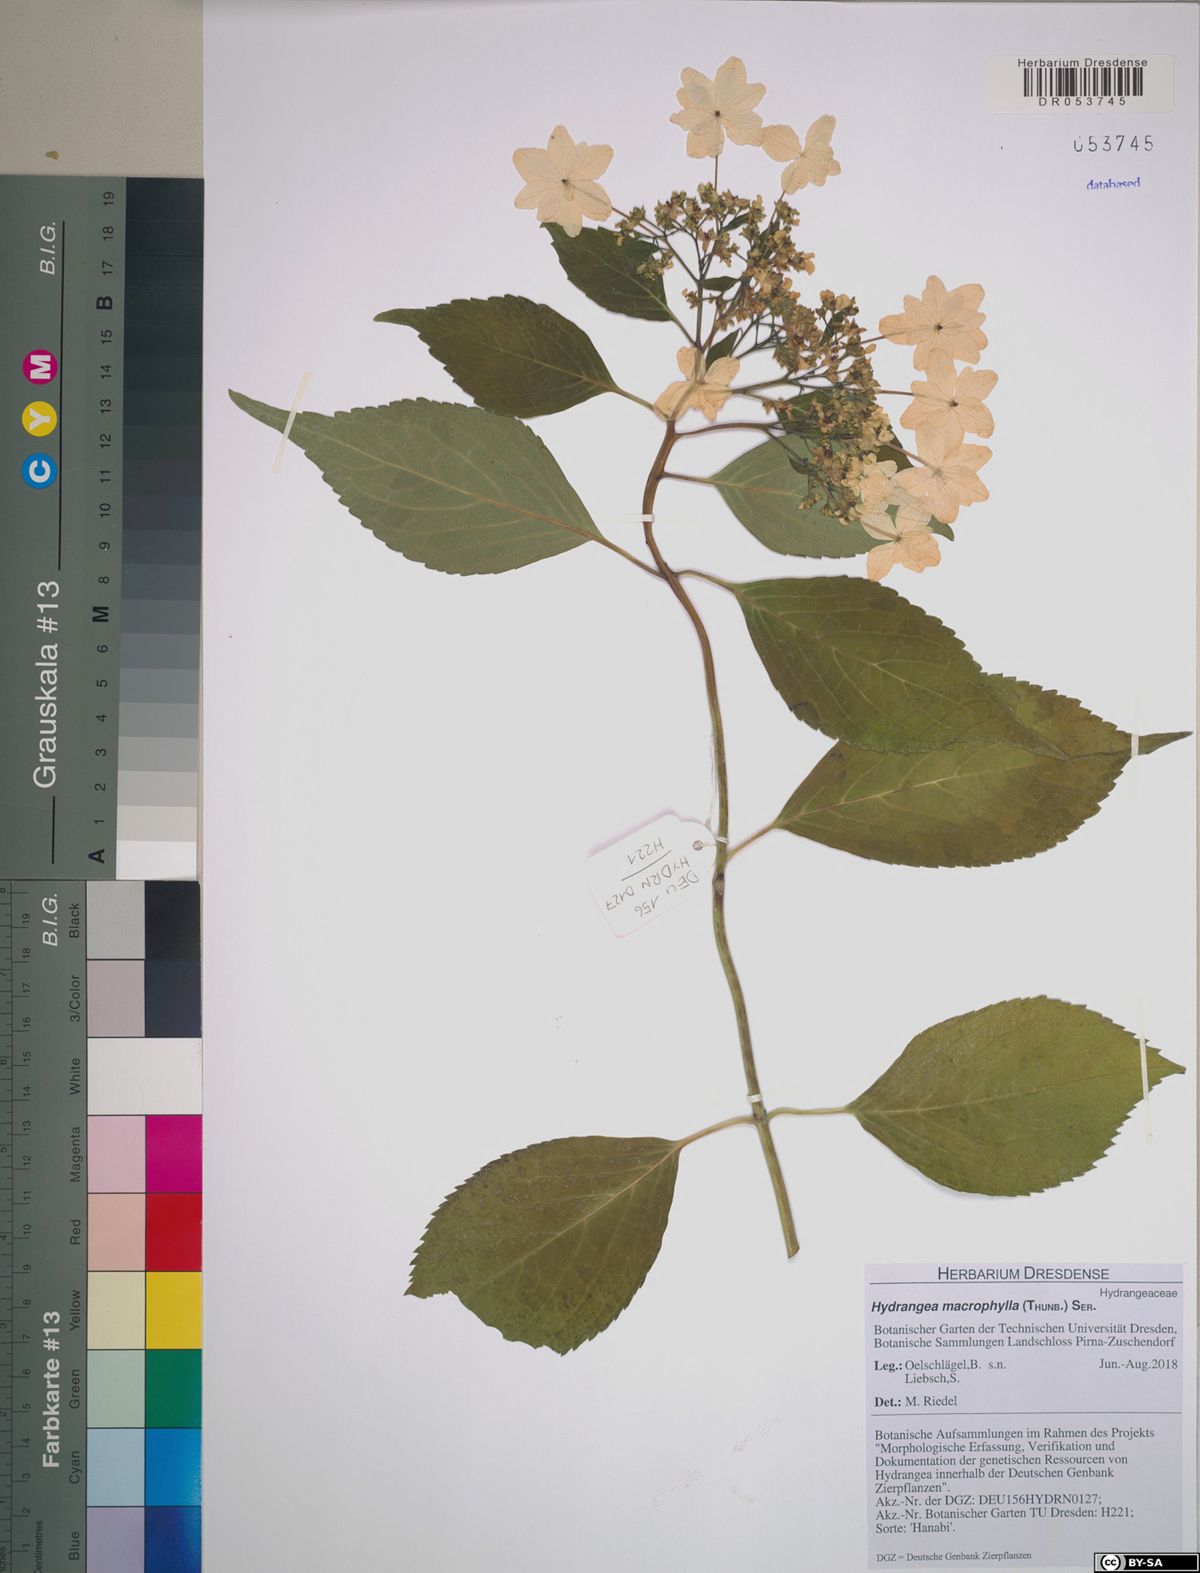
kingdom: Plantae
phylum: Tracheophyta
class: Magnoliopsida
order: Cornales
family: Hydrangeaceae
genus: Hydrangea
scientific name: Hydrangea macrophylla
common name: Hydrangea
